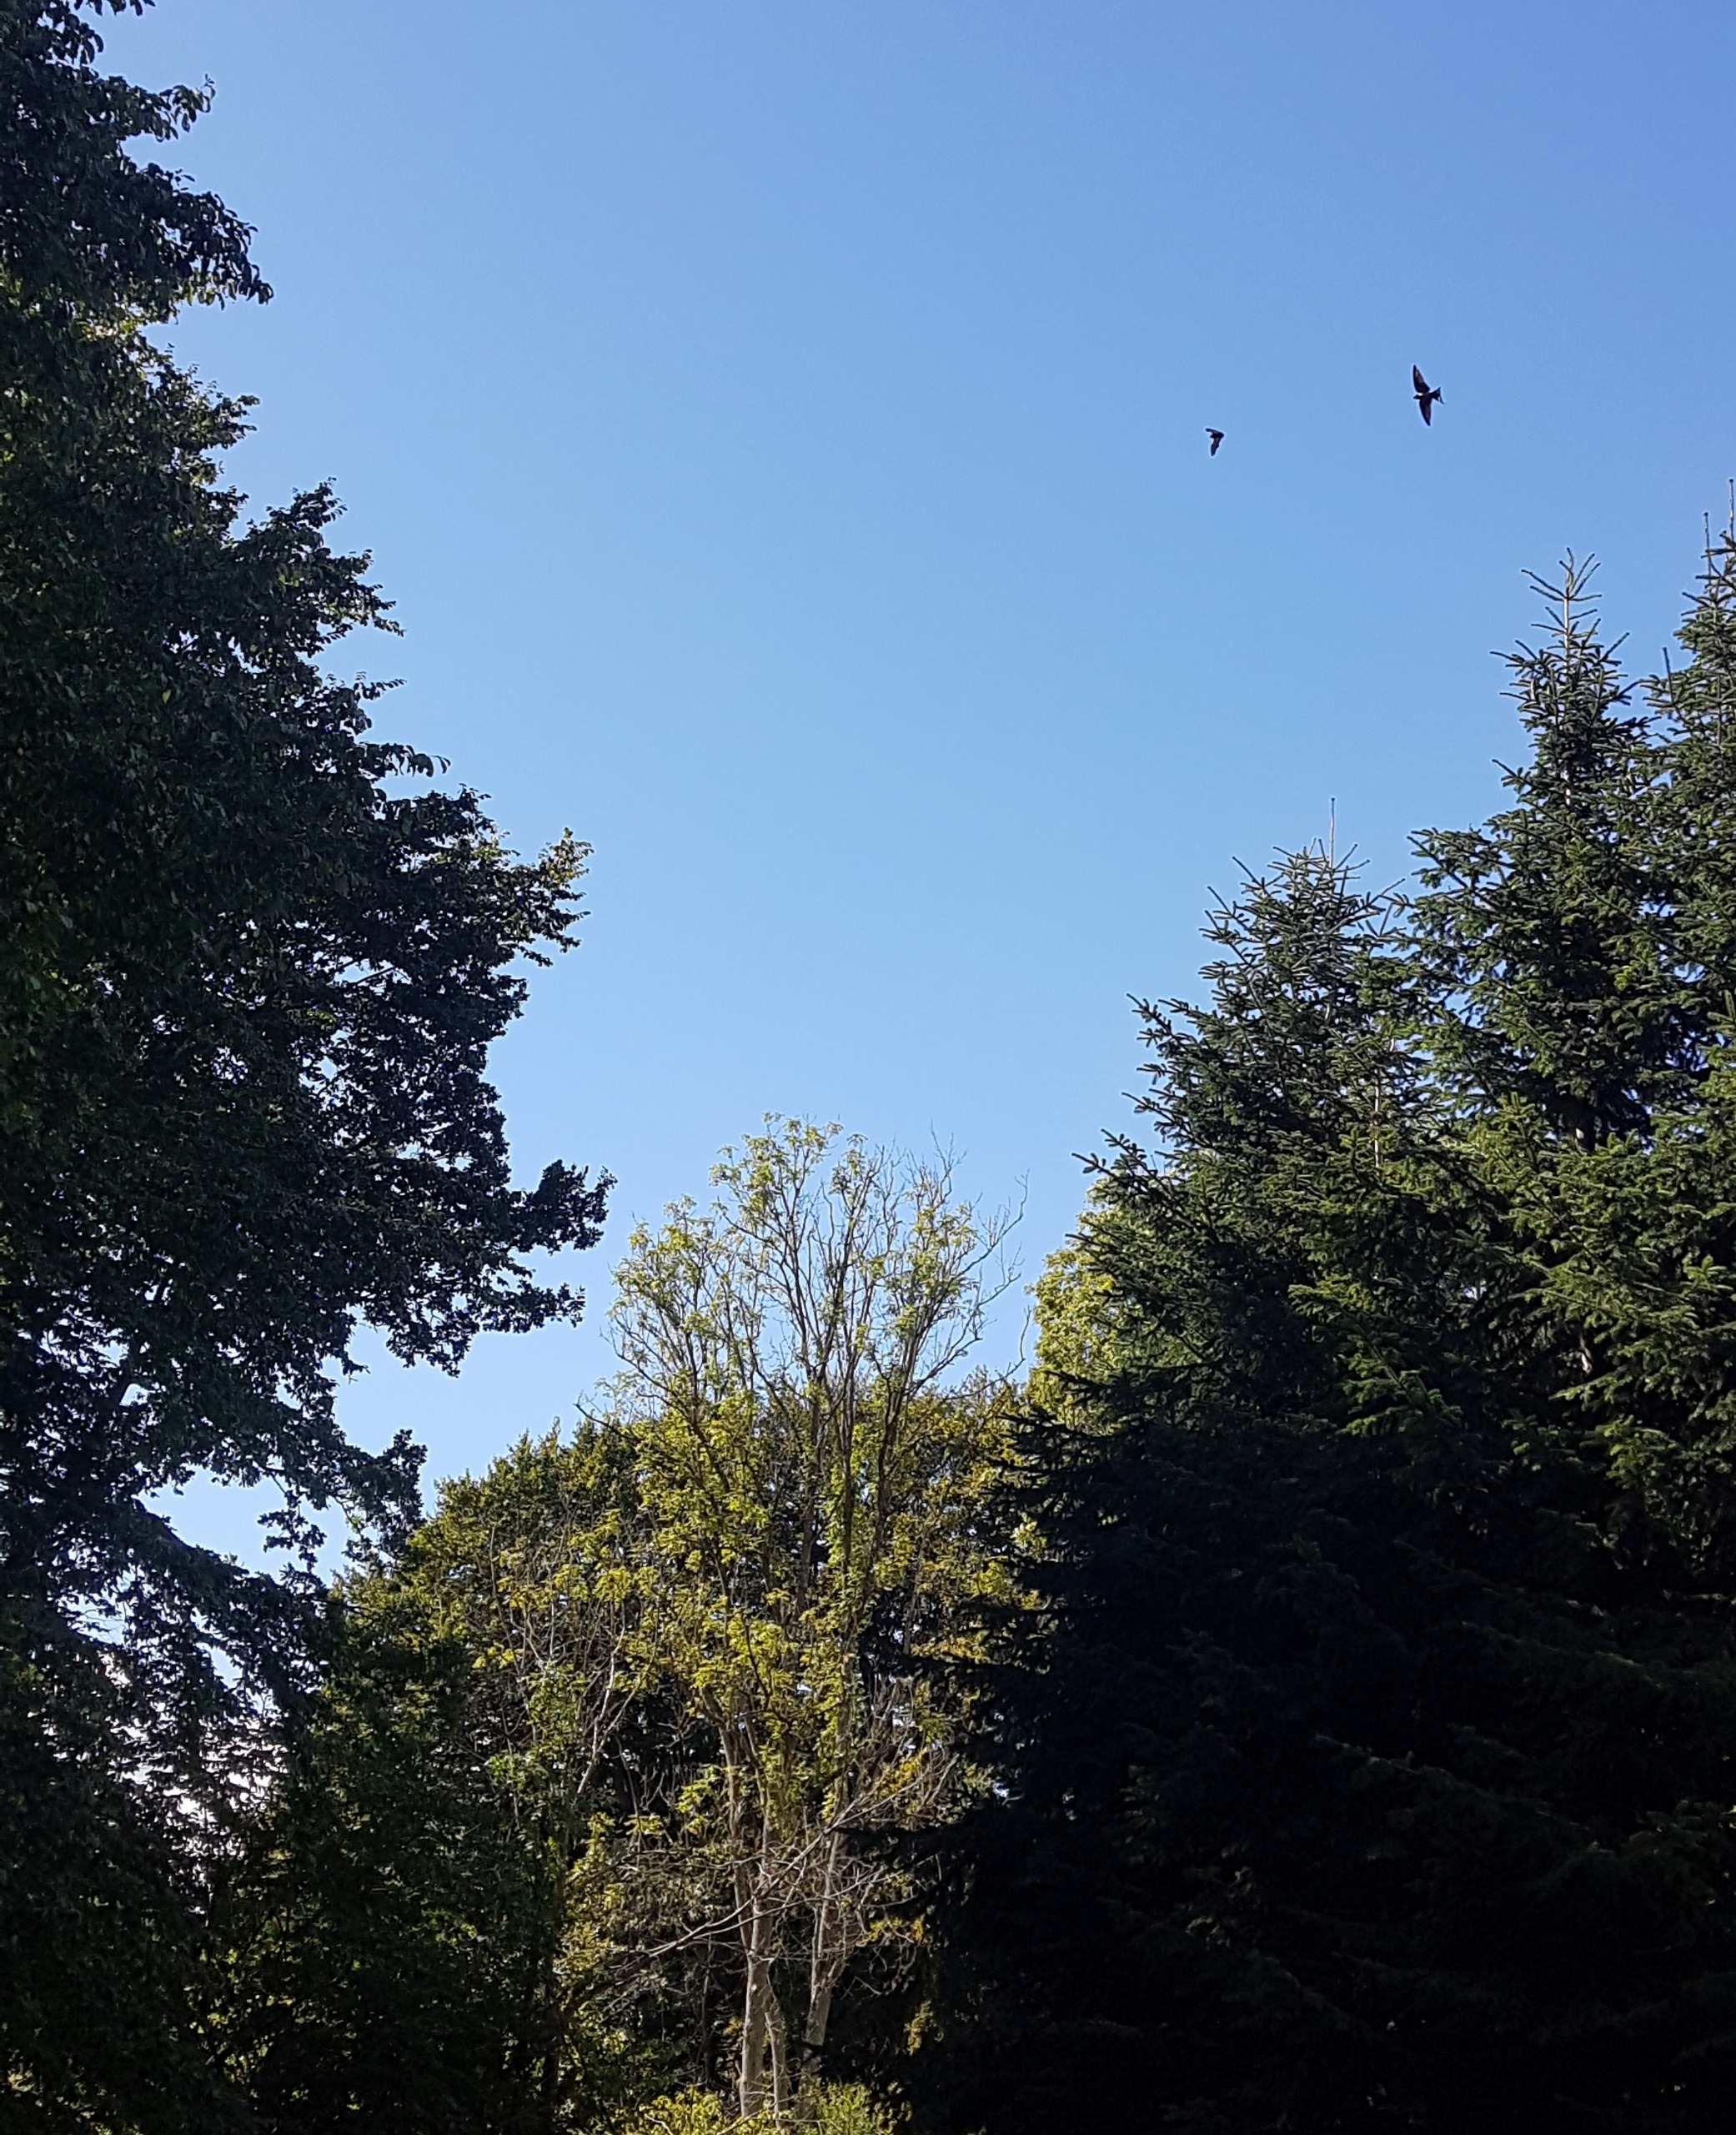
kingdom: Animalia
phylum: Chordata
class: Mammalia
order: Chiroptera
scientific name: Chiroptera
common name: Flagermus
